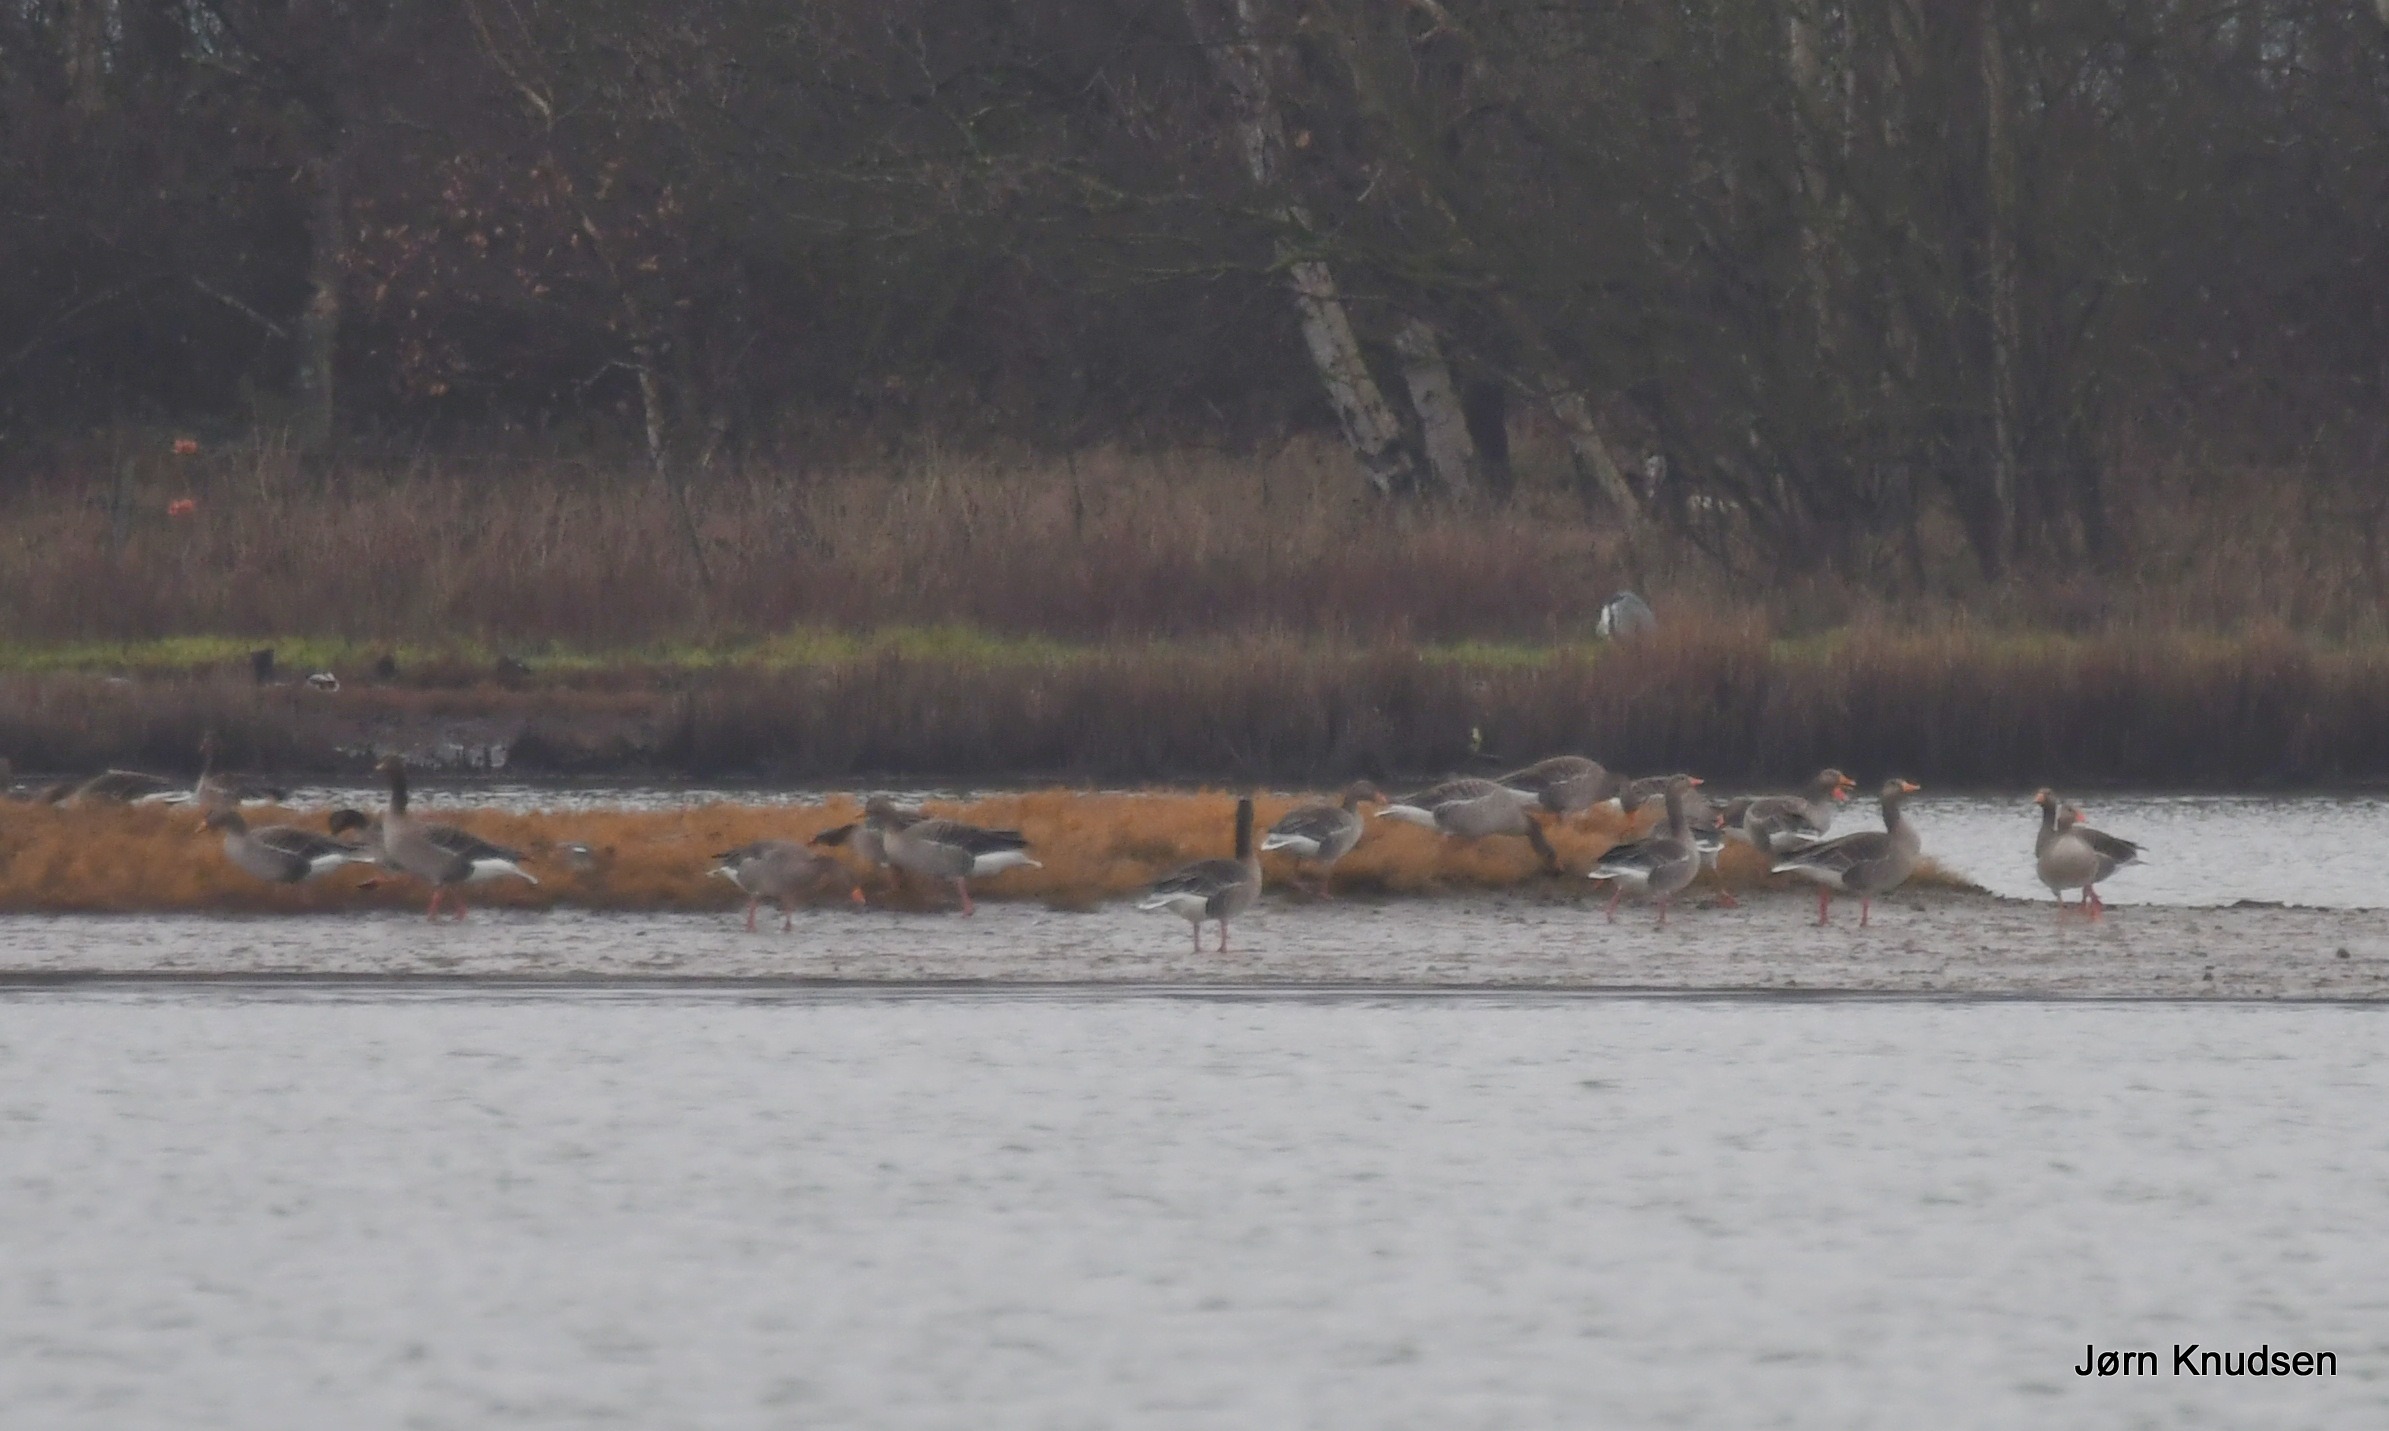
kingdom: Animalia
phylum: Chordata
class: Aves
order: Anseriformes
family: Anatidae
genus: Anser
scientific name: Anser anser
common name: Grågås
